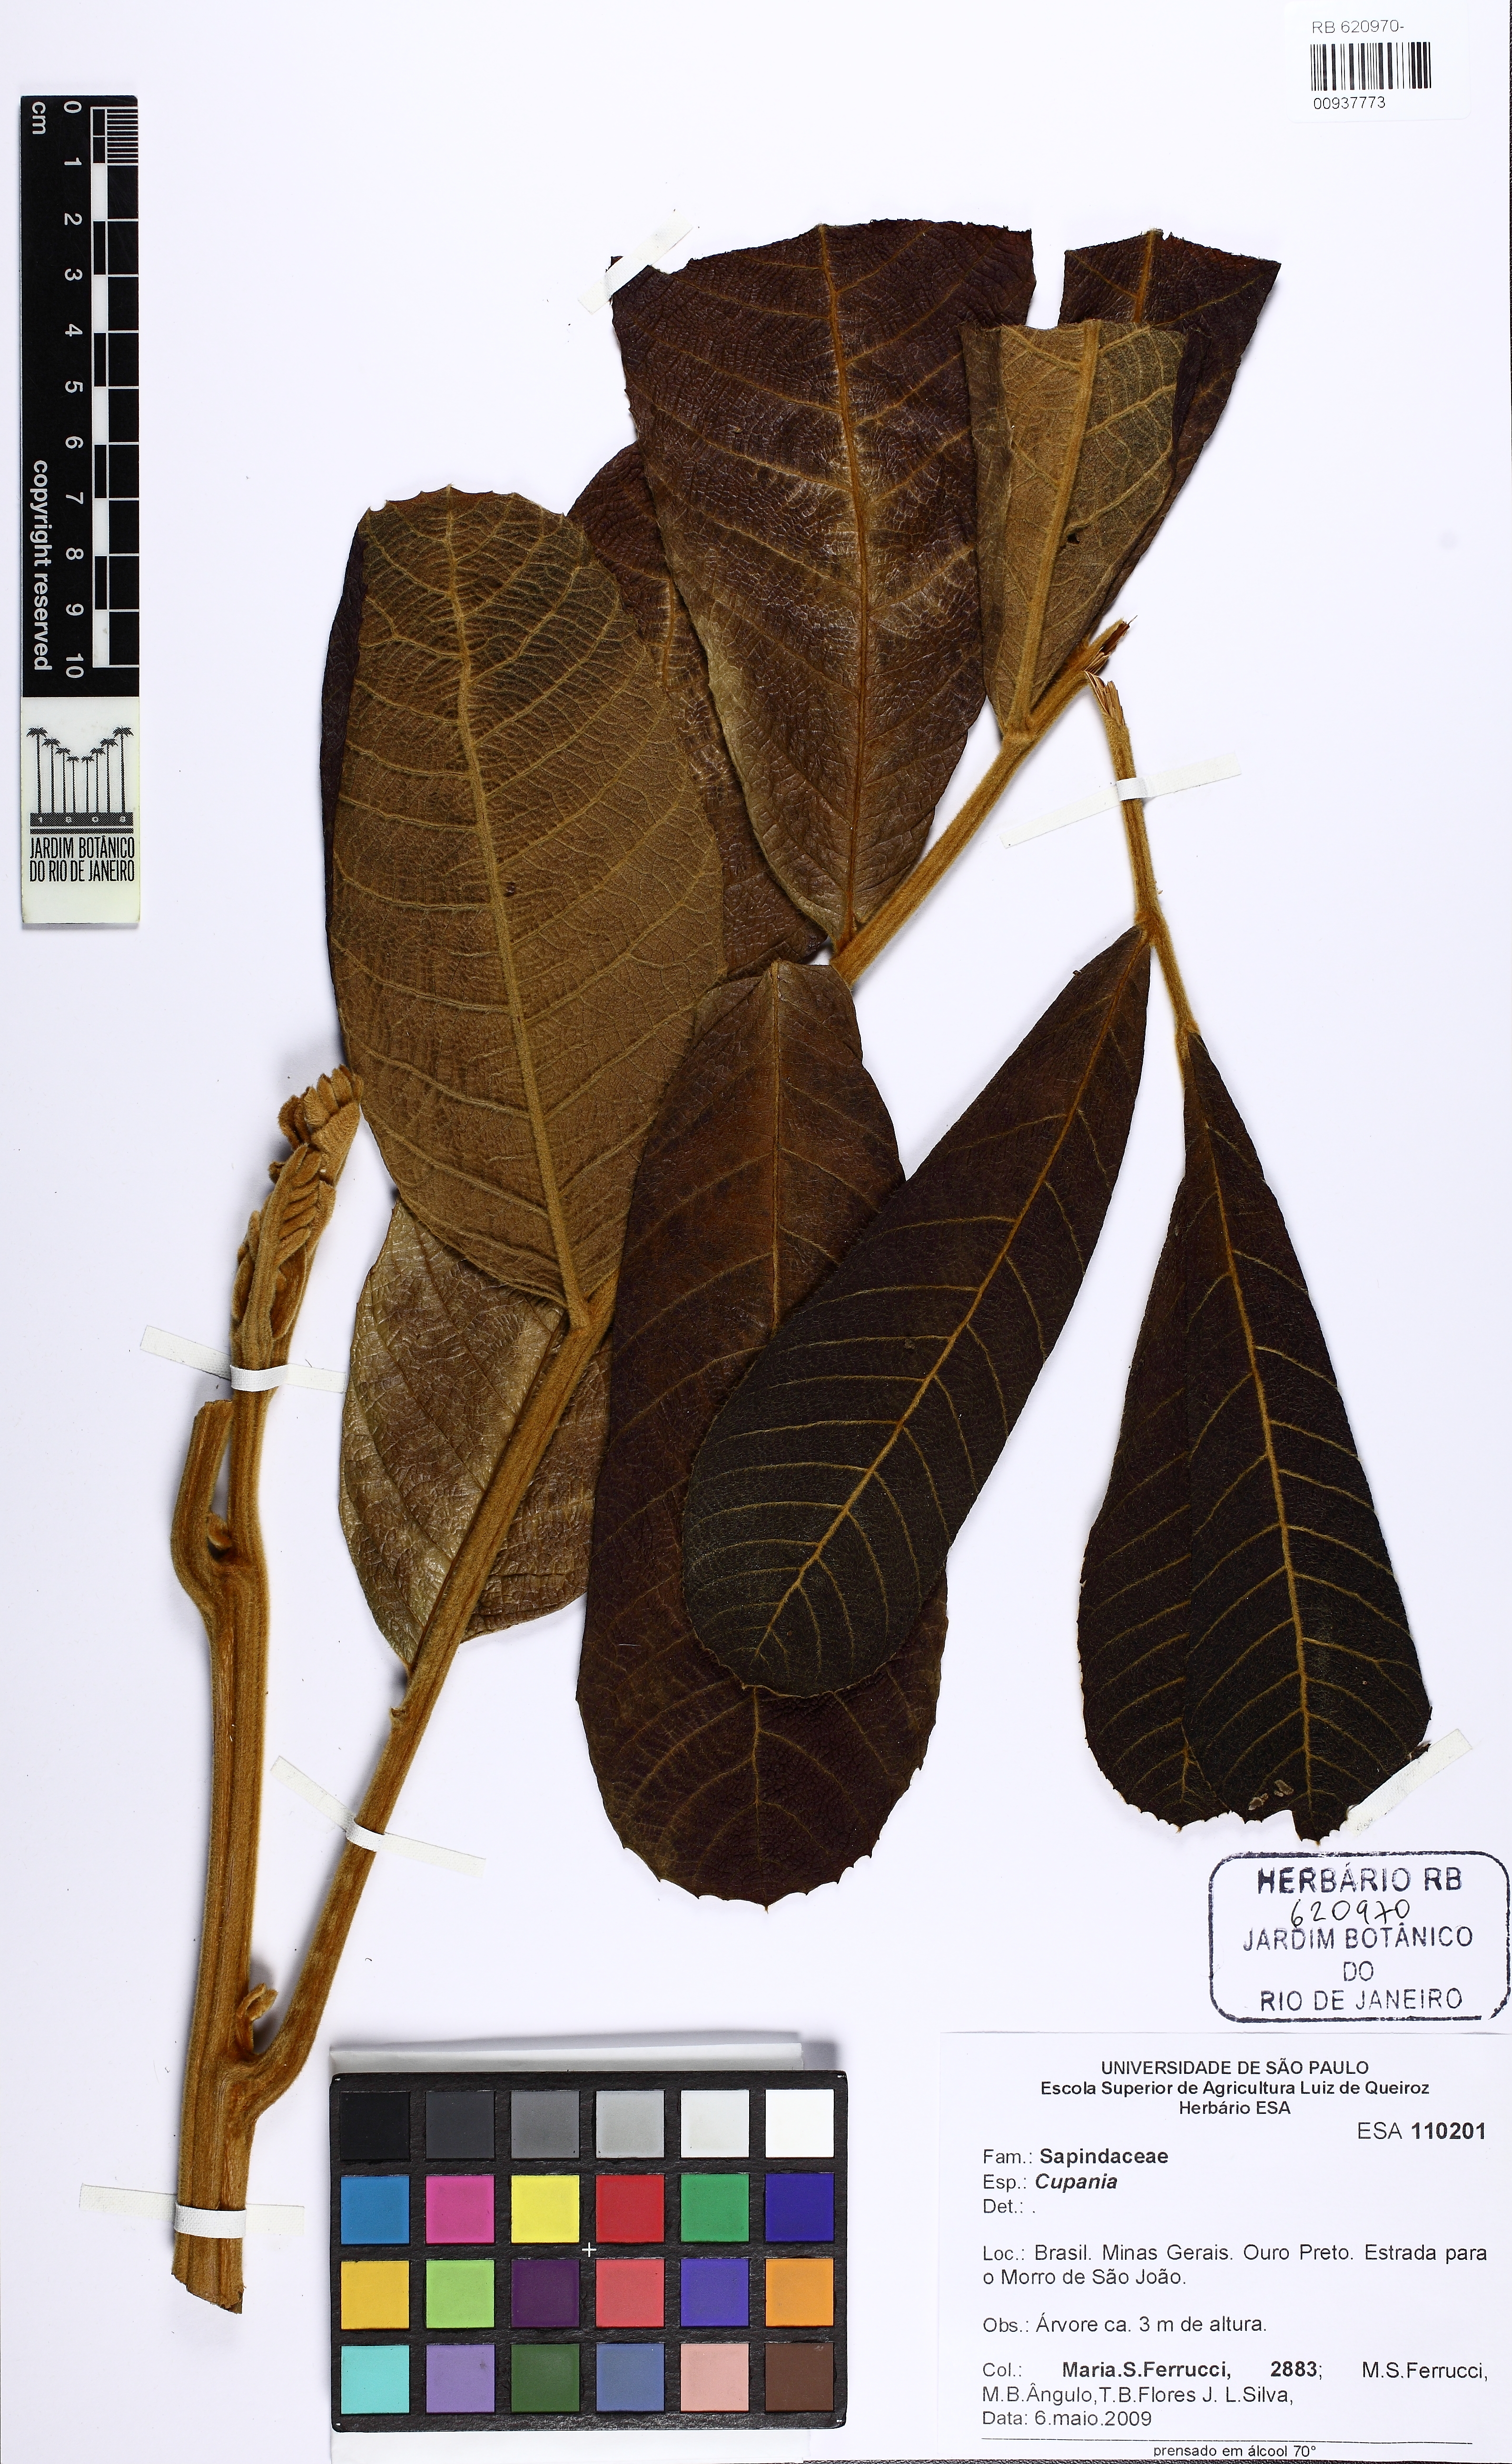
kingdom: Plantae
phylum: Tracheophyta
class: Magnoliopsida
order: Sapindales
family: Sapindaceae
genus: Cupania
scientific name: Cupania
